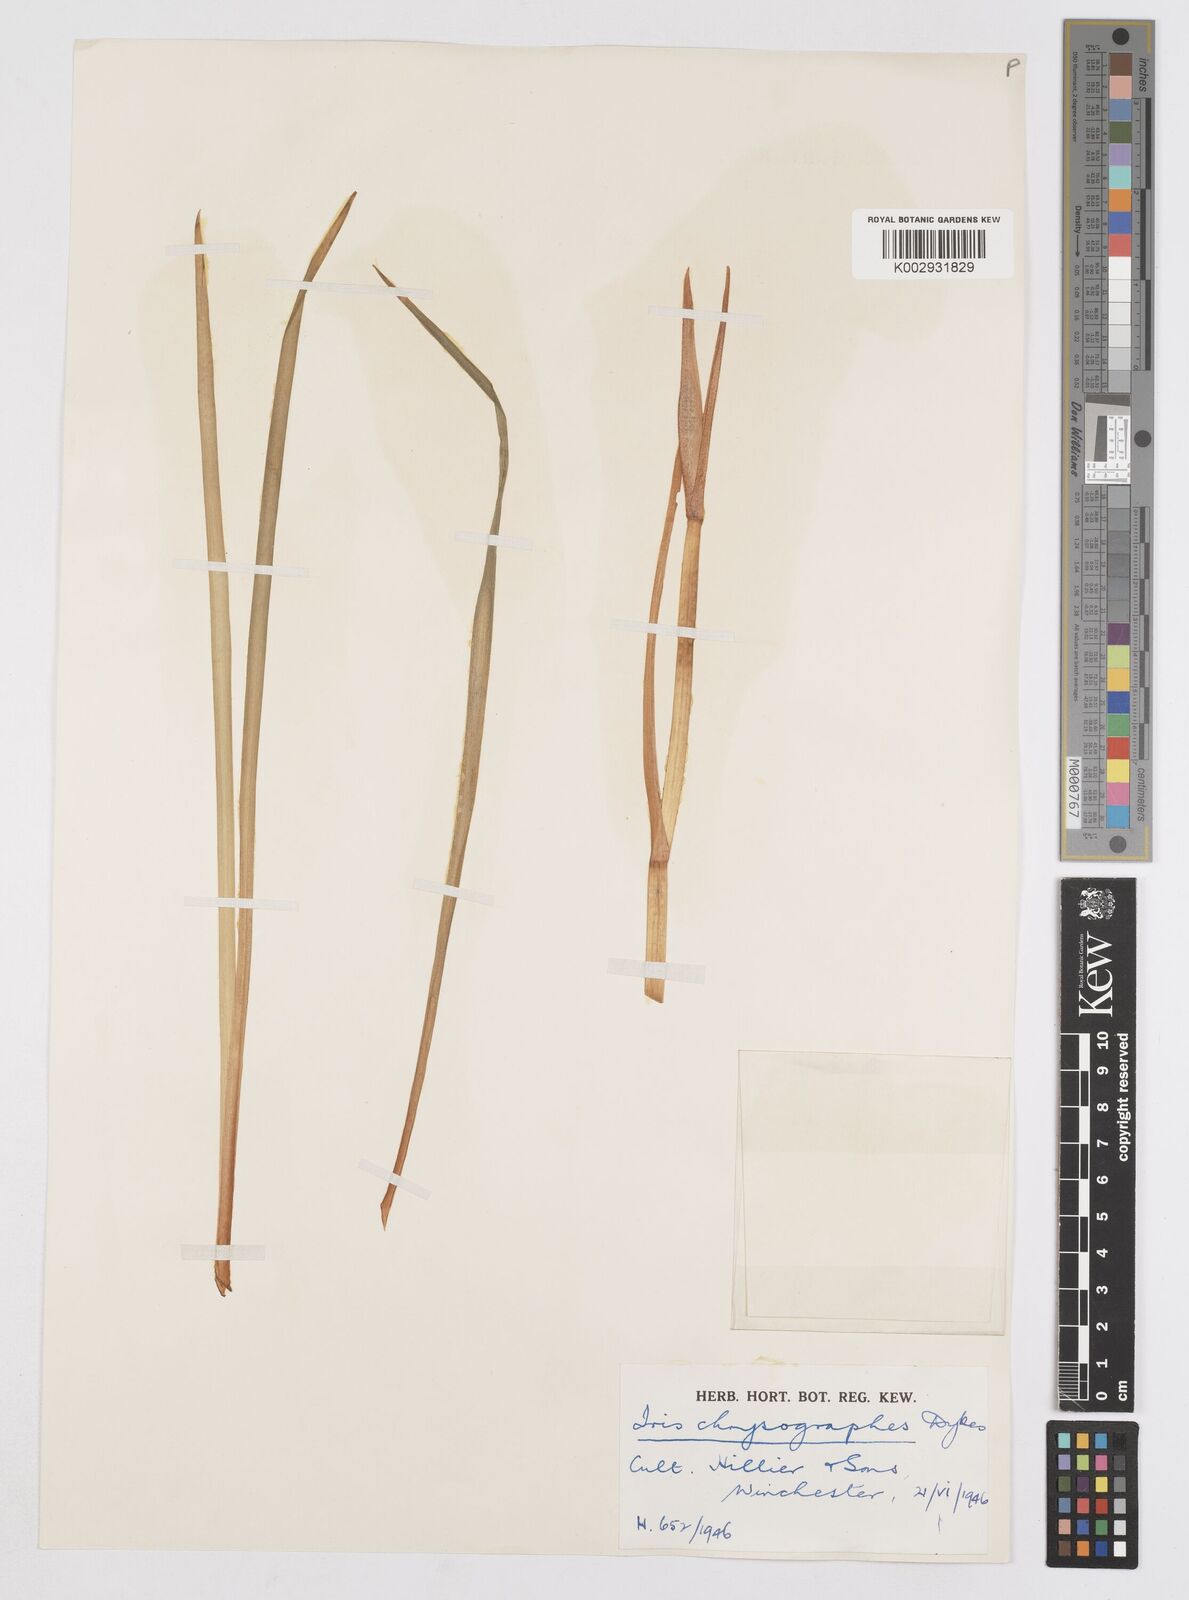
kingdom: Plantae
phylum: Tracheophyta
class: Liliopsida
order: Asparagales
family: Iridaceae
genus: Iris
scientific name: Iris chrysographes
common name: Gold-vein iris
